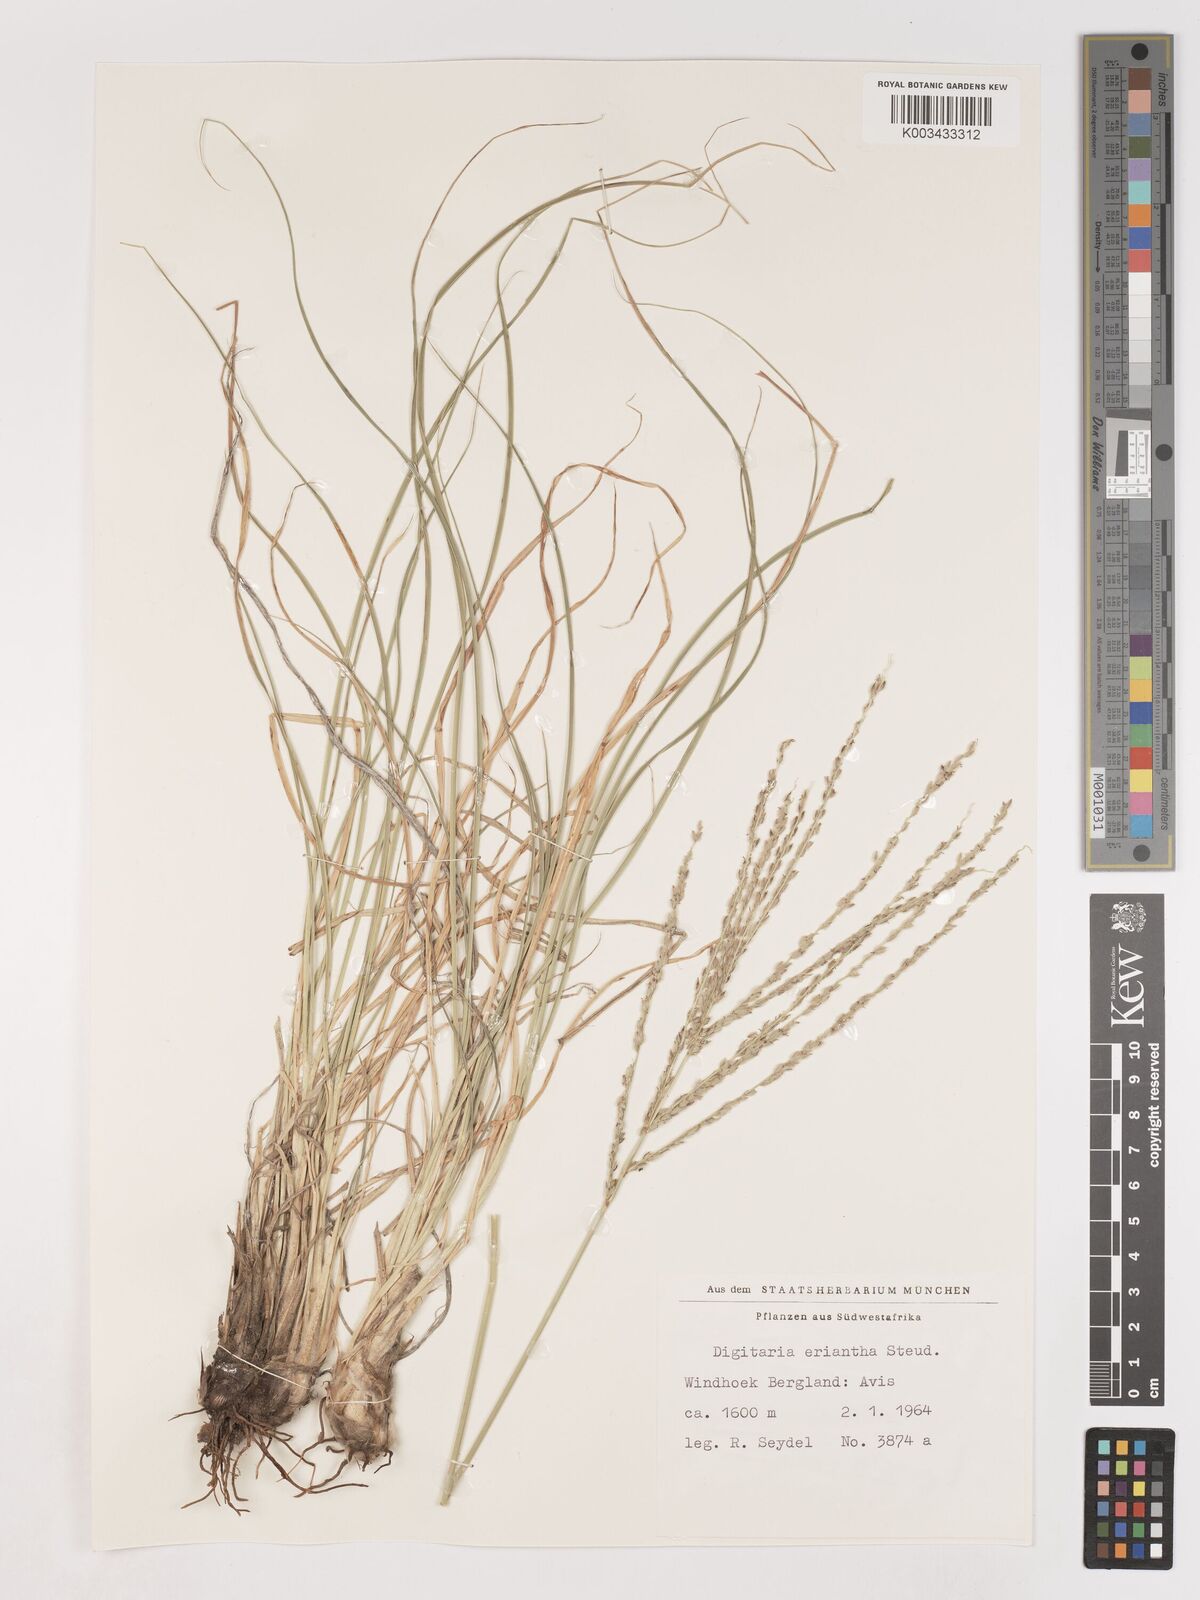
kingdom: Plantae
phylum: Tracheophyta
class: Liliopsida
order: Poales
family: Poaceae
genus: Digitaria
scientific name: Digitaria eriantha
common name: Digitgrass
